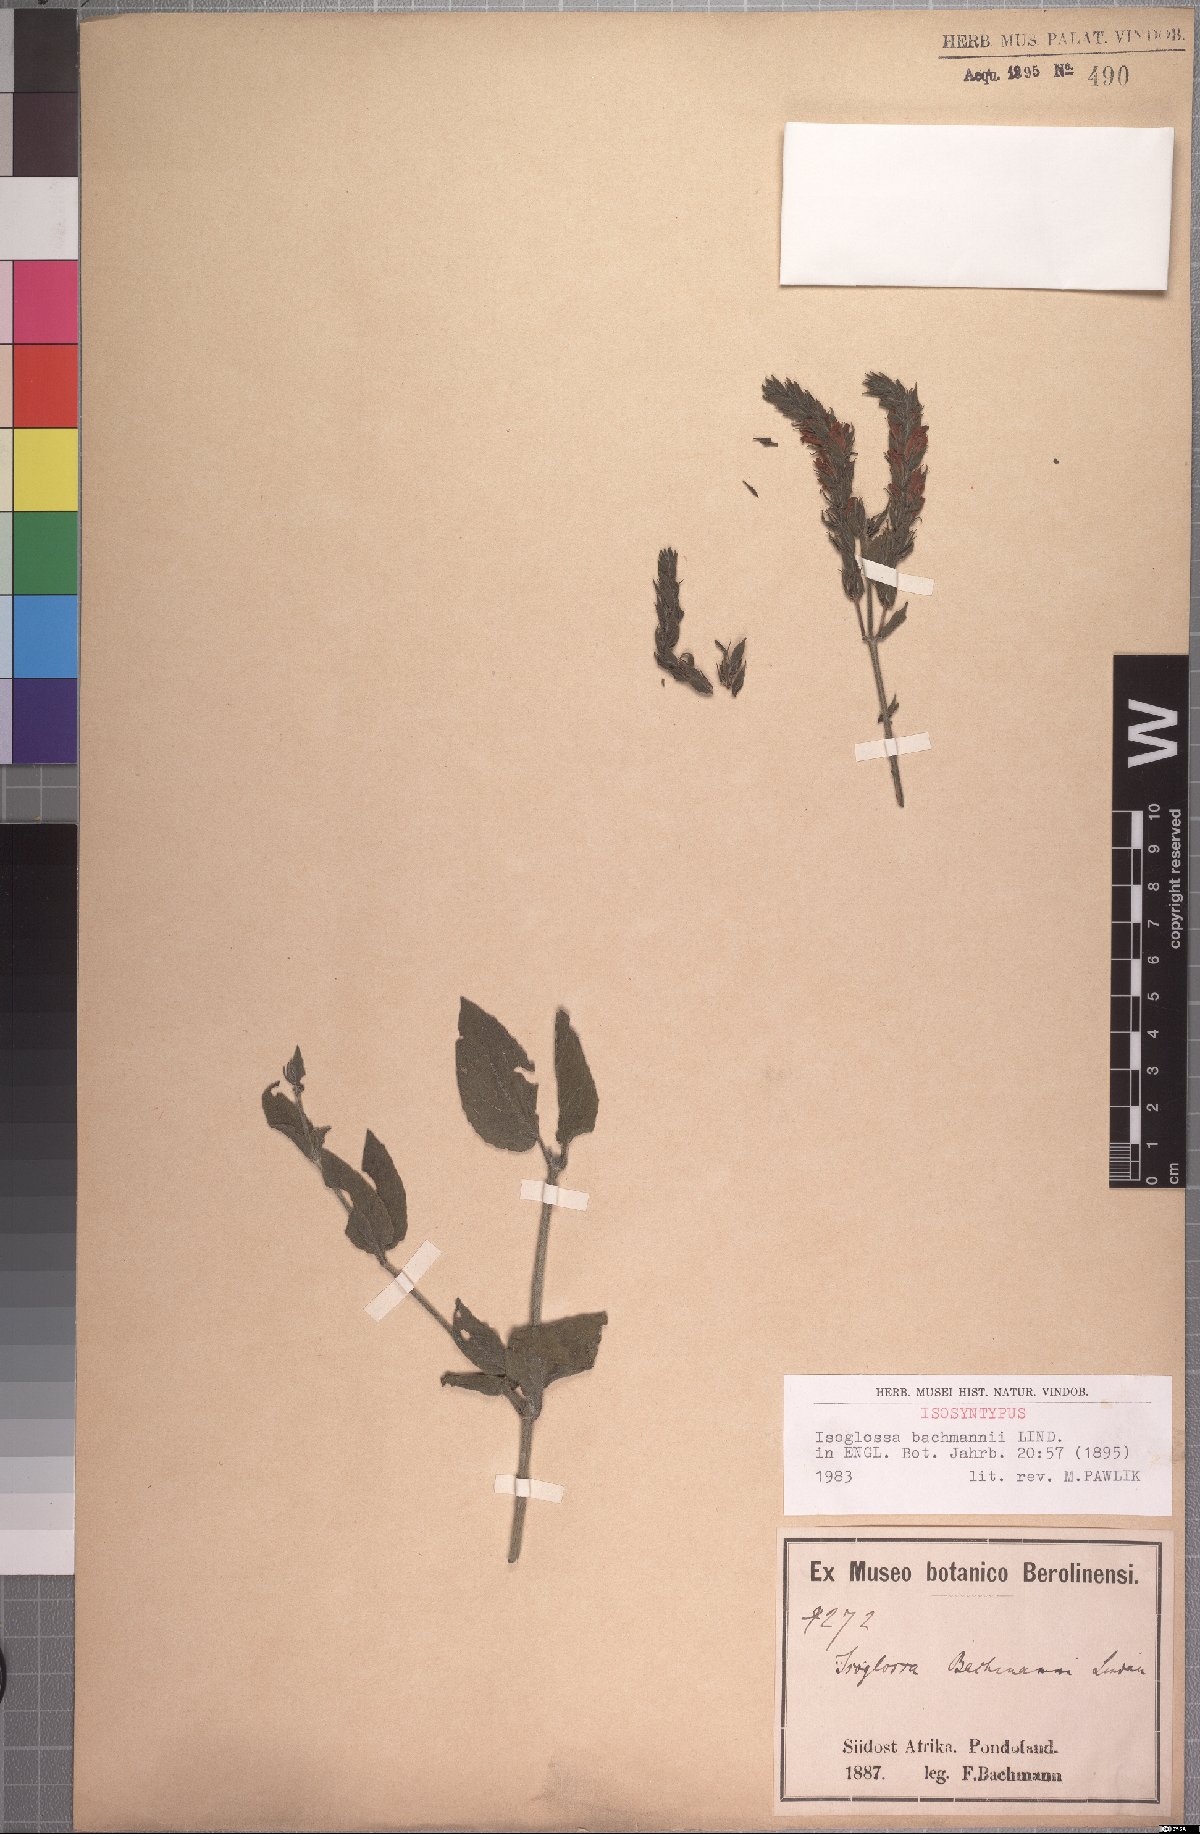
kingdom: Plantae
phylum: Tracheophyta
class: Magnoliopsida
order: Lamiales
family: Acanthaceae
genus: Isoglossa
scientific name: Isoglossa ovata
